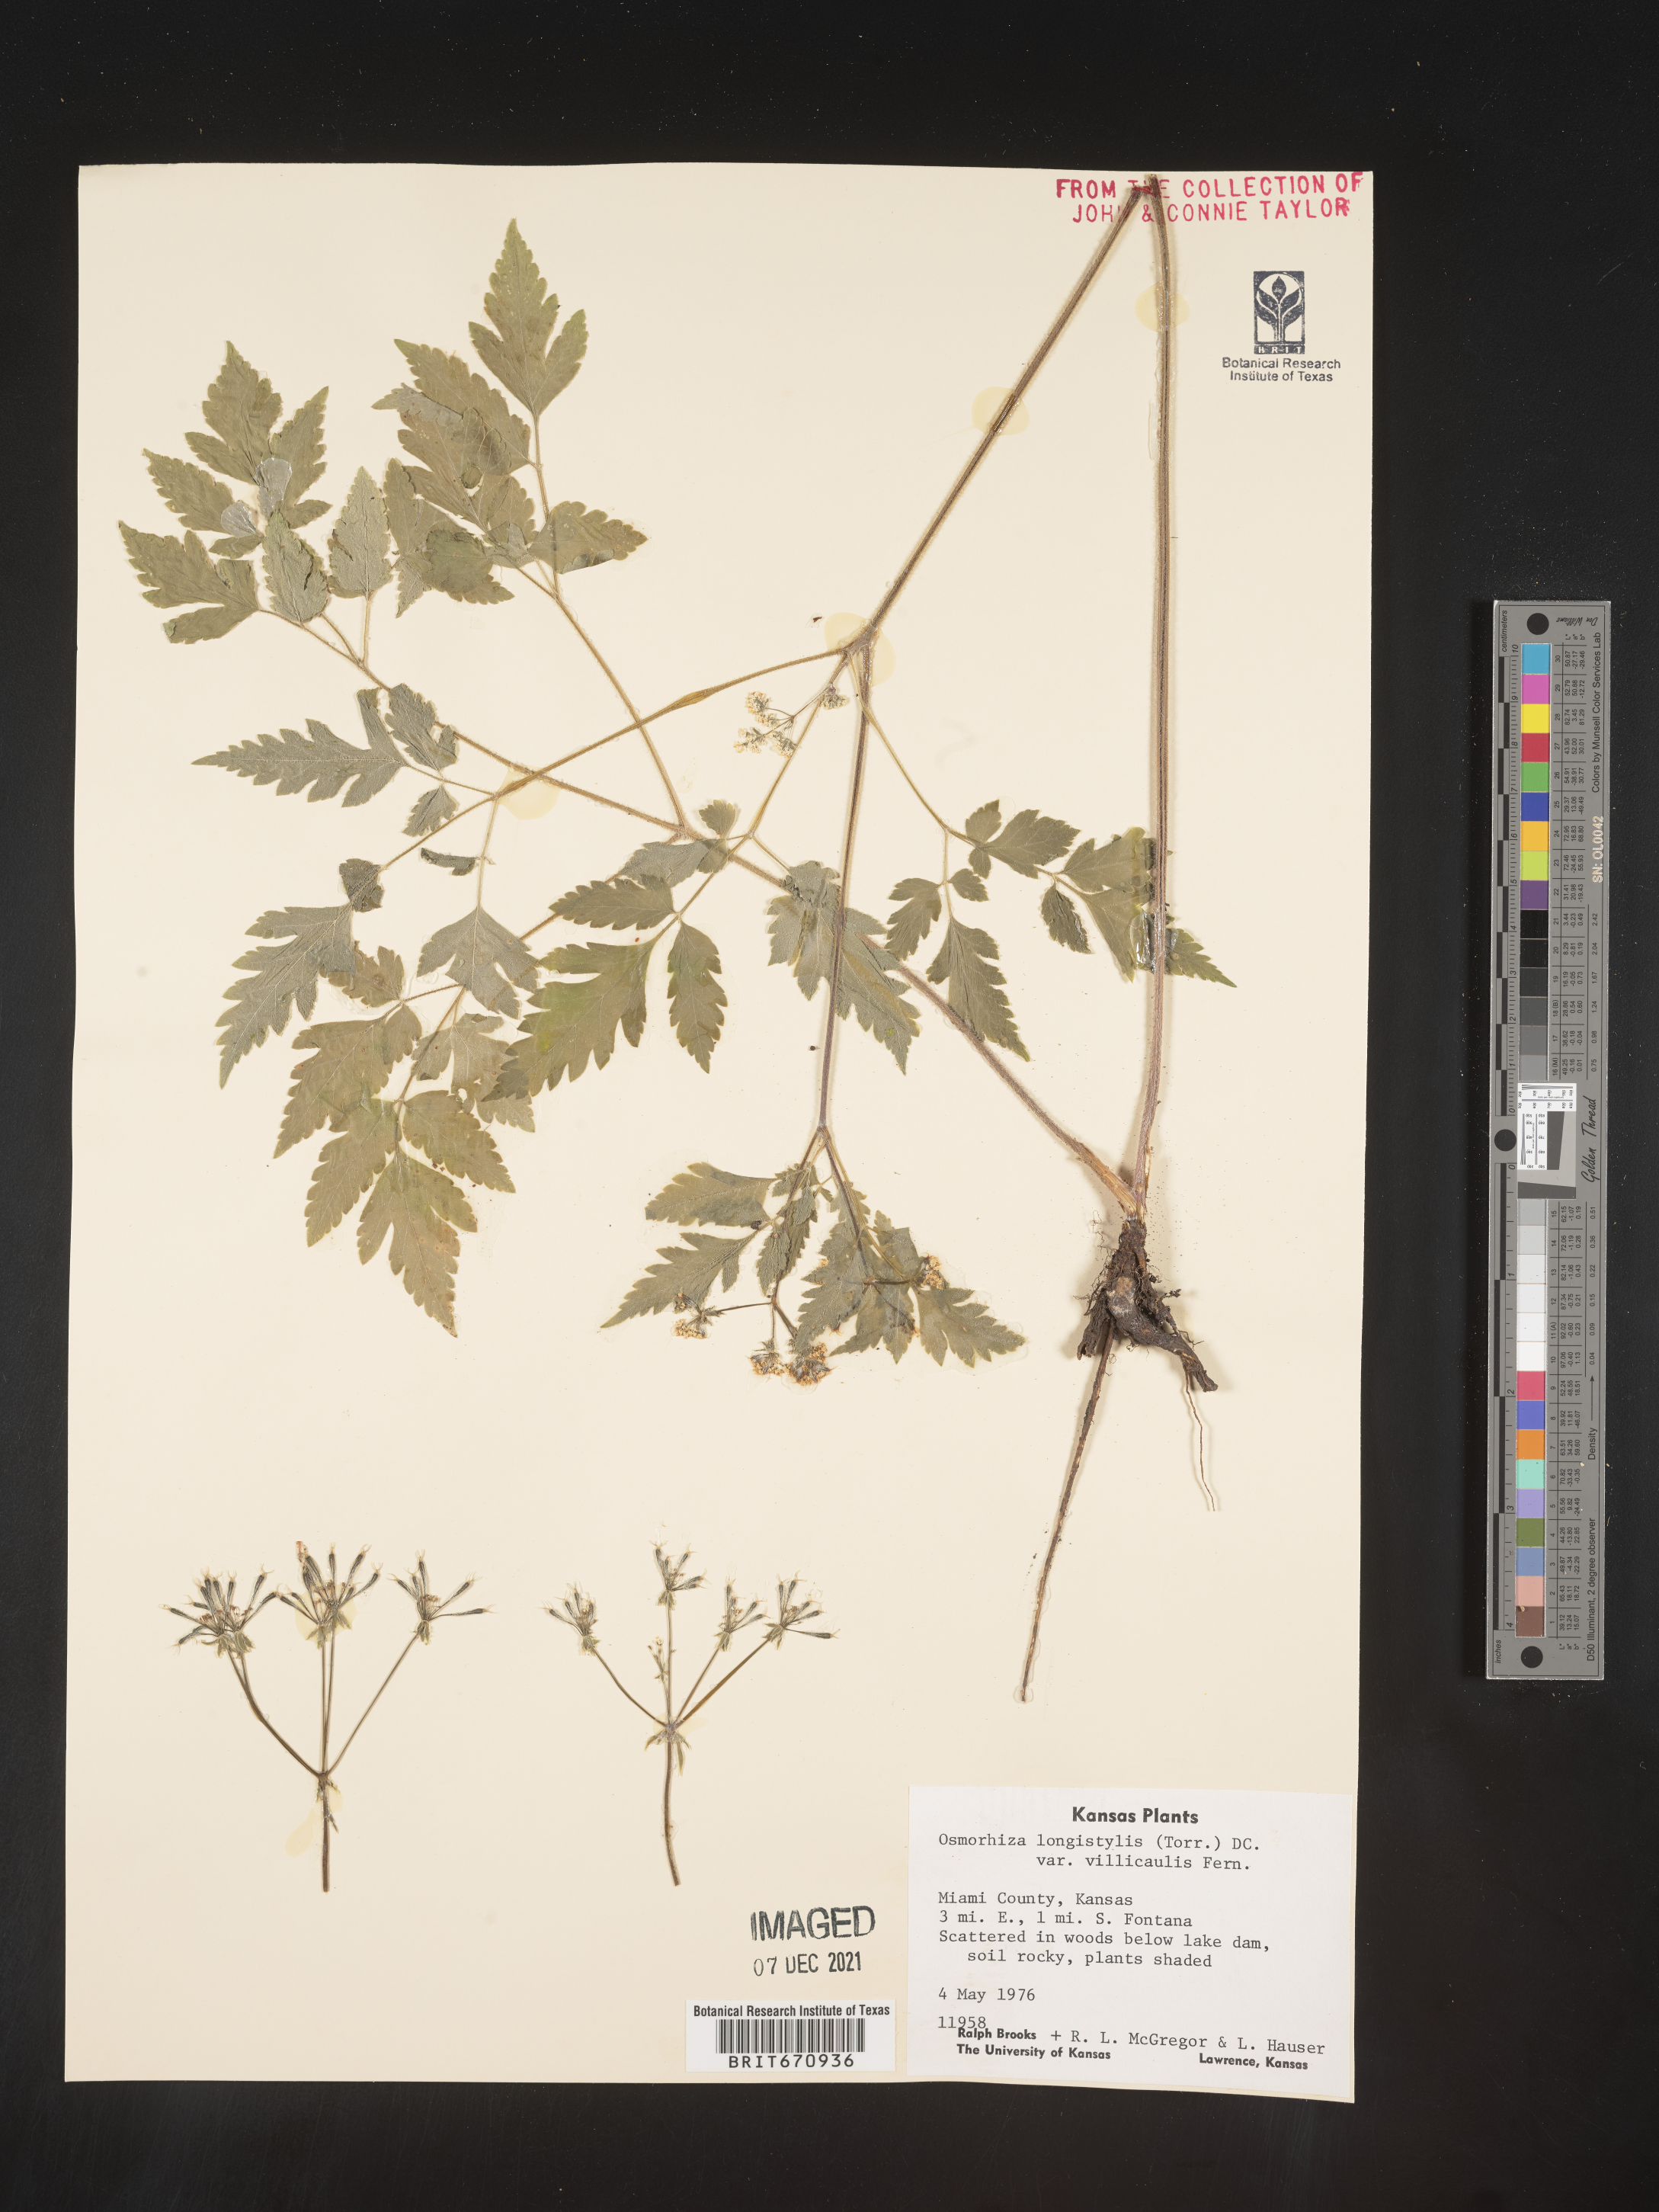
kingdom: Plantae
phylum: Tracheophyta
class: Magnoliopsida
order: Apiales
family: Apiaceae
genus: Osmorhiza
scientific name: Osmorhiza longistylis
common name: Smooth sweet cicely
